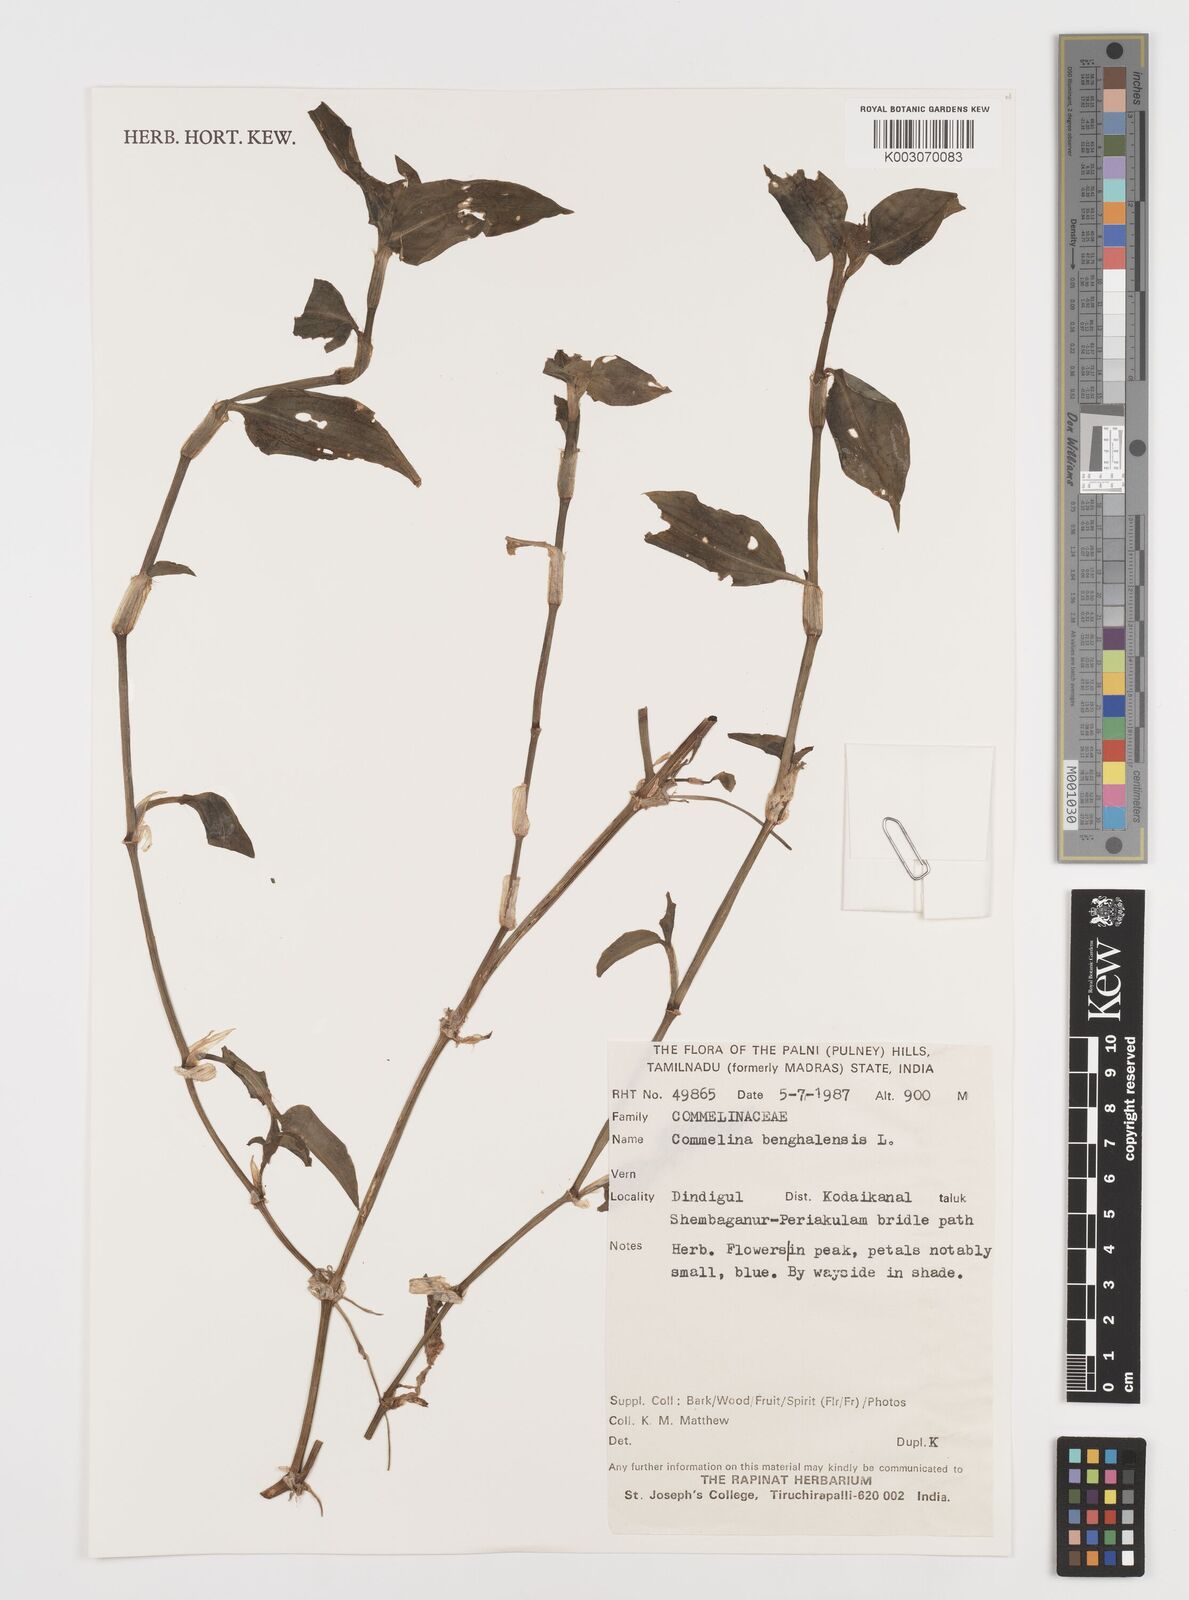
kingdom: Plantae
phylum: Tracheophyta
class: Liliopsida
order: Commelinales
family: Commelinaceae
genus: Commelina
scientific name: Commelina benghalensis
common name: Jio
